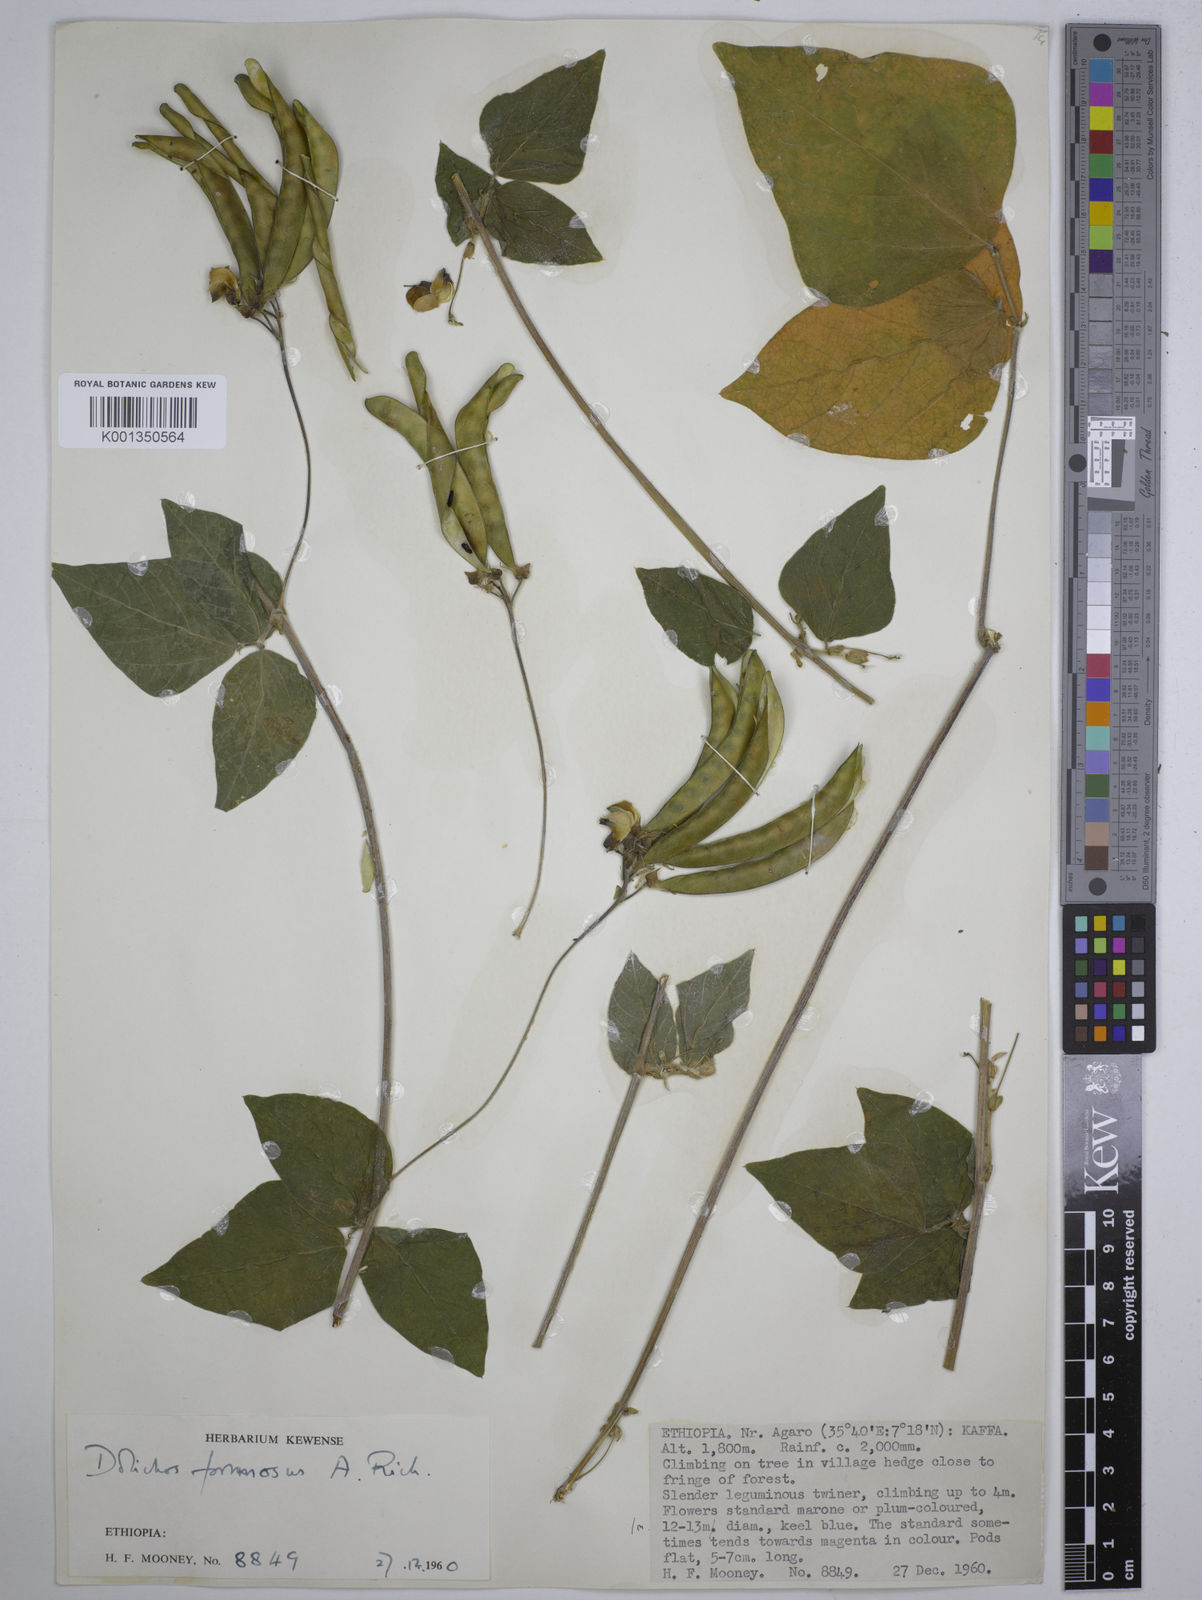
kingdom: Plantae
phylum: Tracheophyta
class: Magnoliopsida
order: Fabales
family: Fabaceae
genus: Dolichos
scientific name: Dolichos
